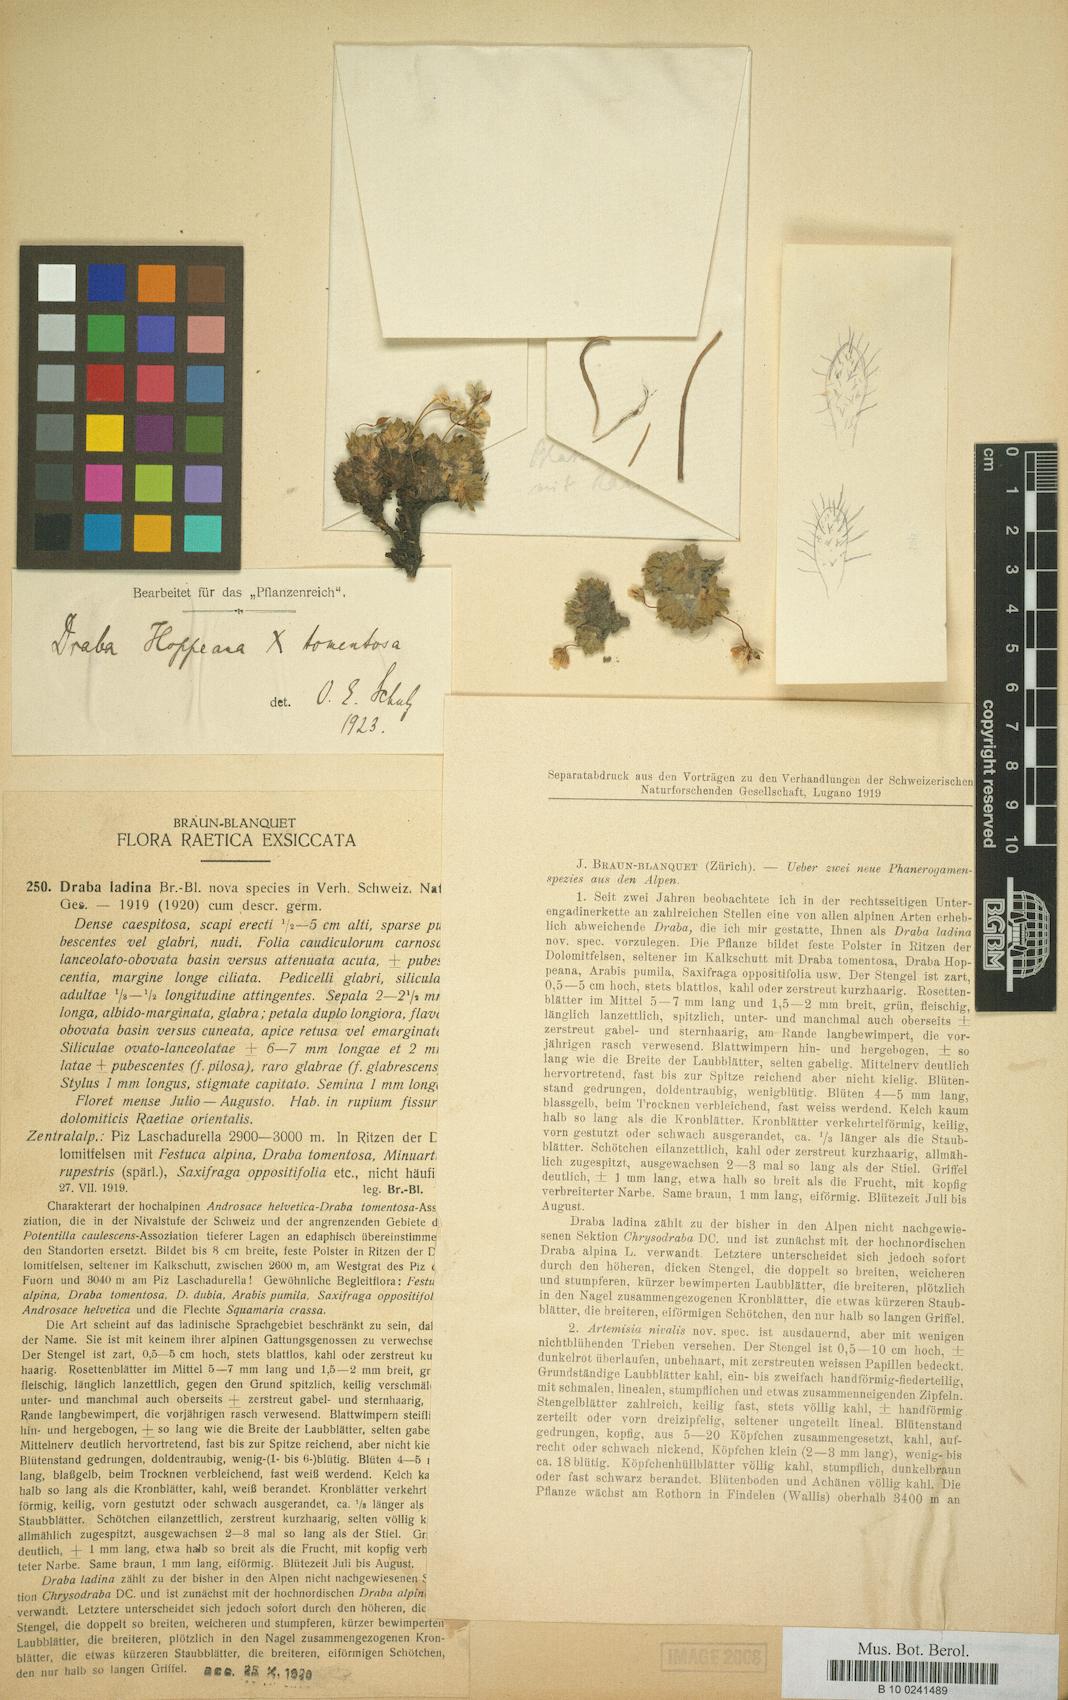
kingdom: Plantae
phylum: Tracheophyta
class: Magnoliopsida
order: Brassicales
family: Brassicaceae
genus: Draba
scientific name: Draba hoppeana
